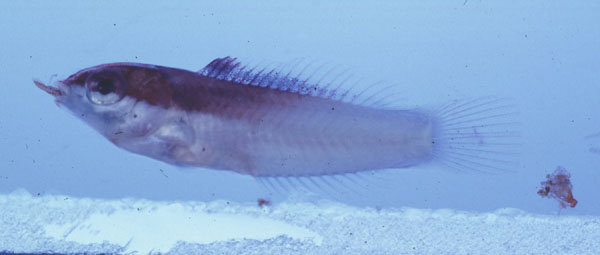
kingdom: Animalia
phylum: Chordata
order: Perciformes
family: Labridae
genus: Thalassoma
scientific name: Thalassoma
